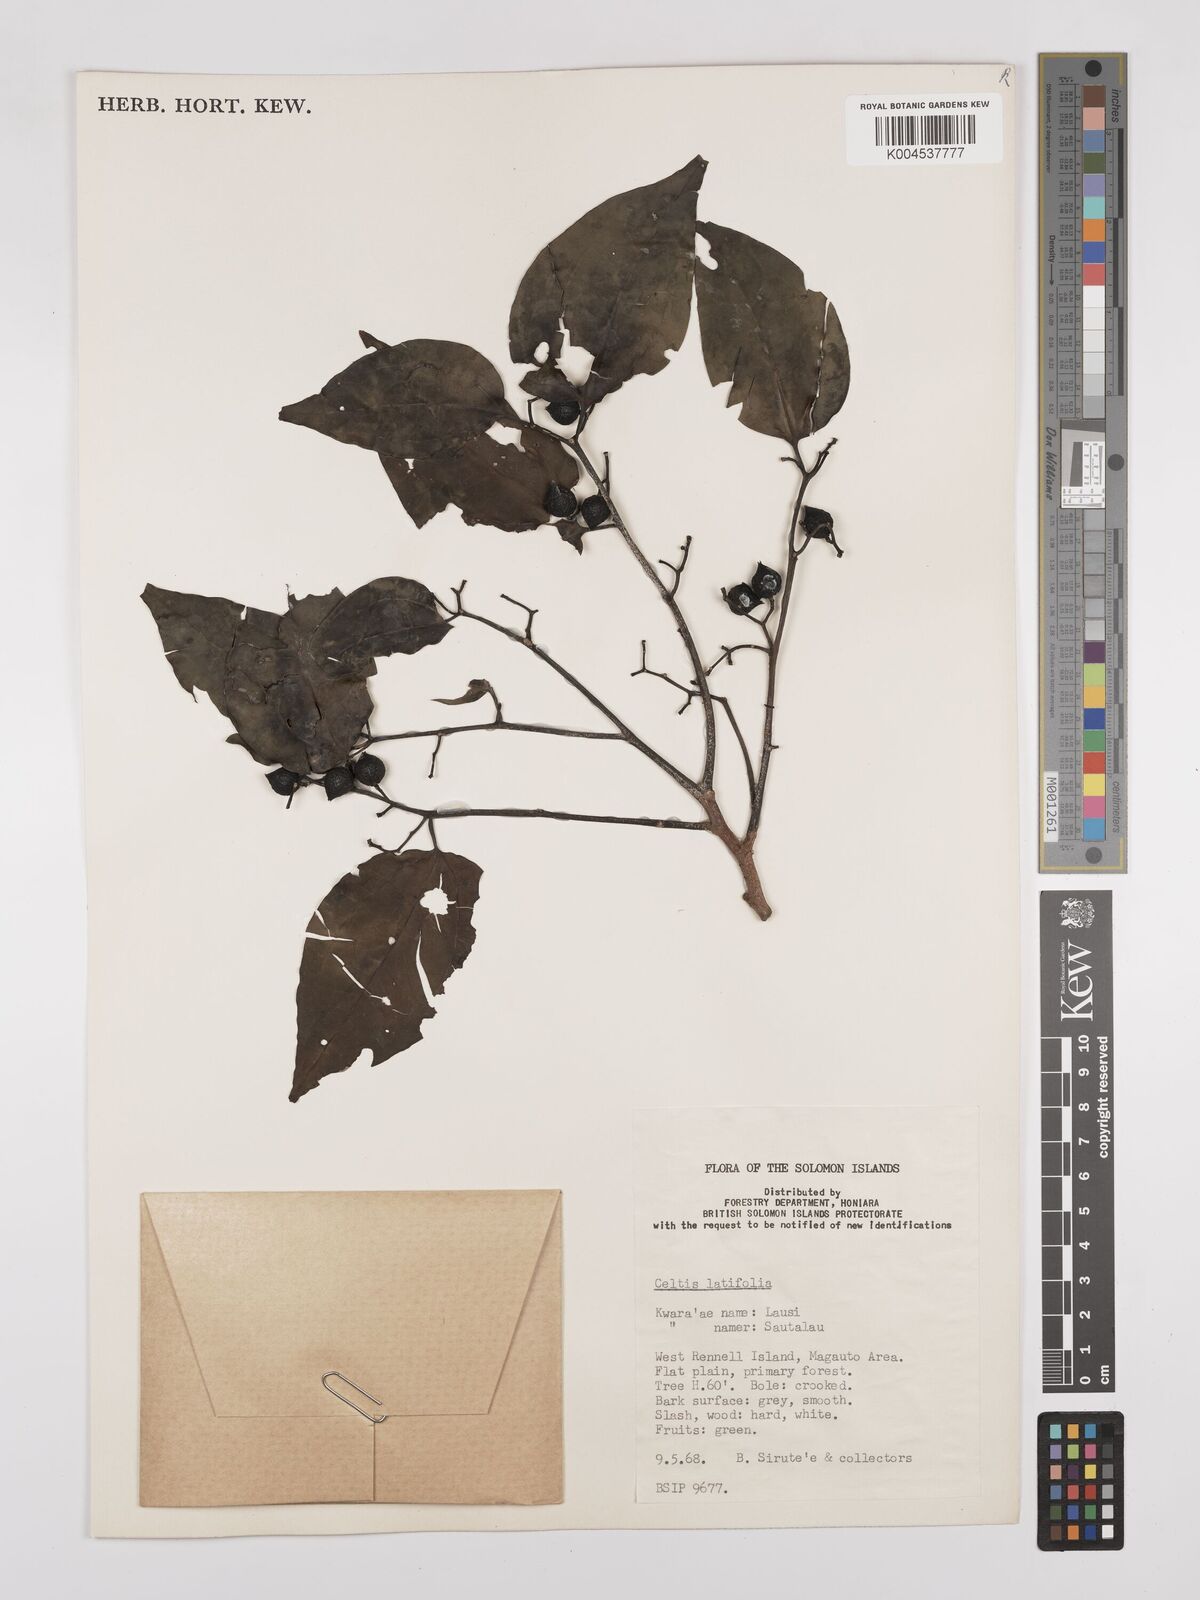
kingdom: Plantae
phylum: Tracheophyta
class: Magnoliopsida
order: Rosales
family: Cannabaceae
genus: Celtis
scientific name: Celtis latifolia
